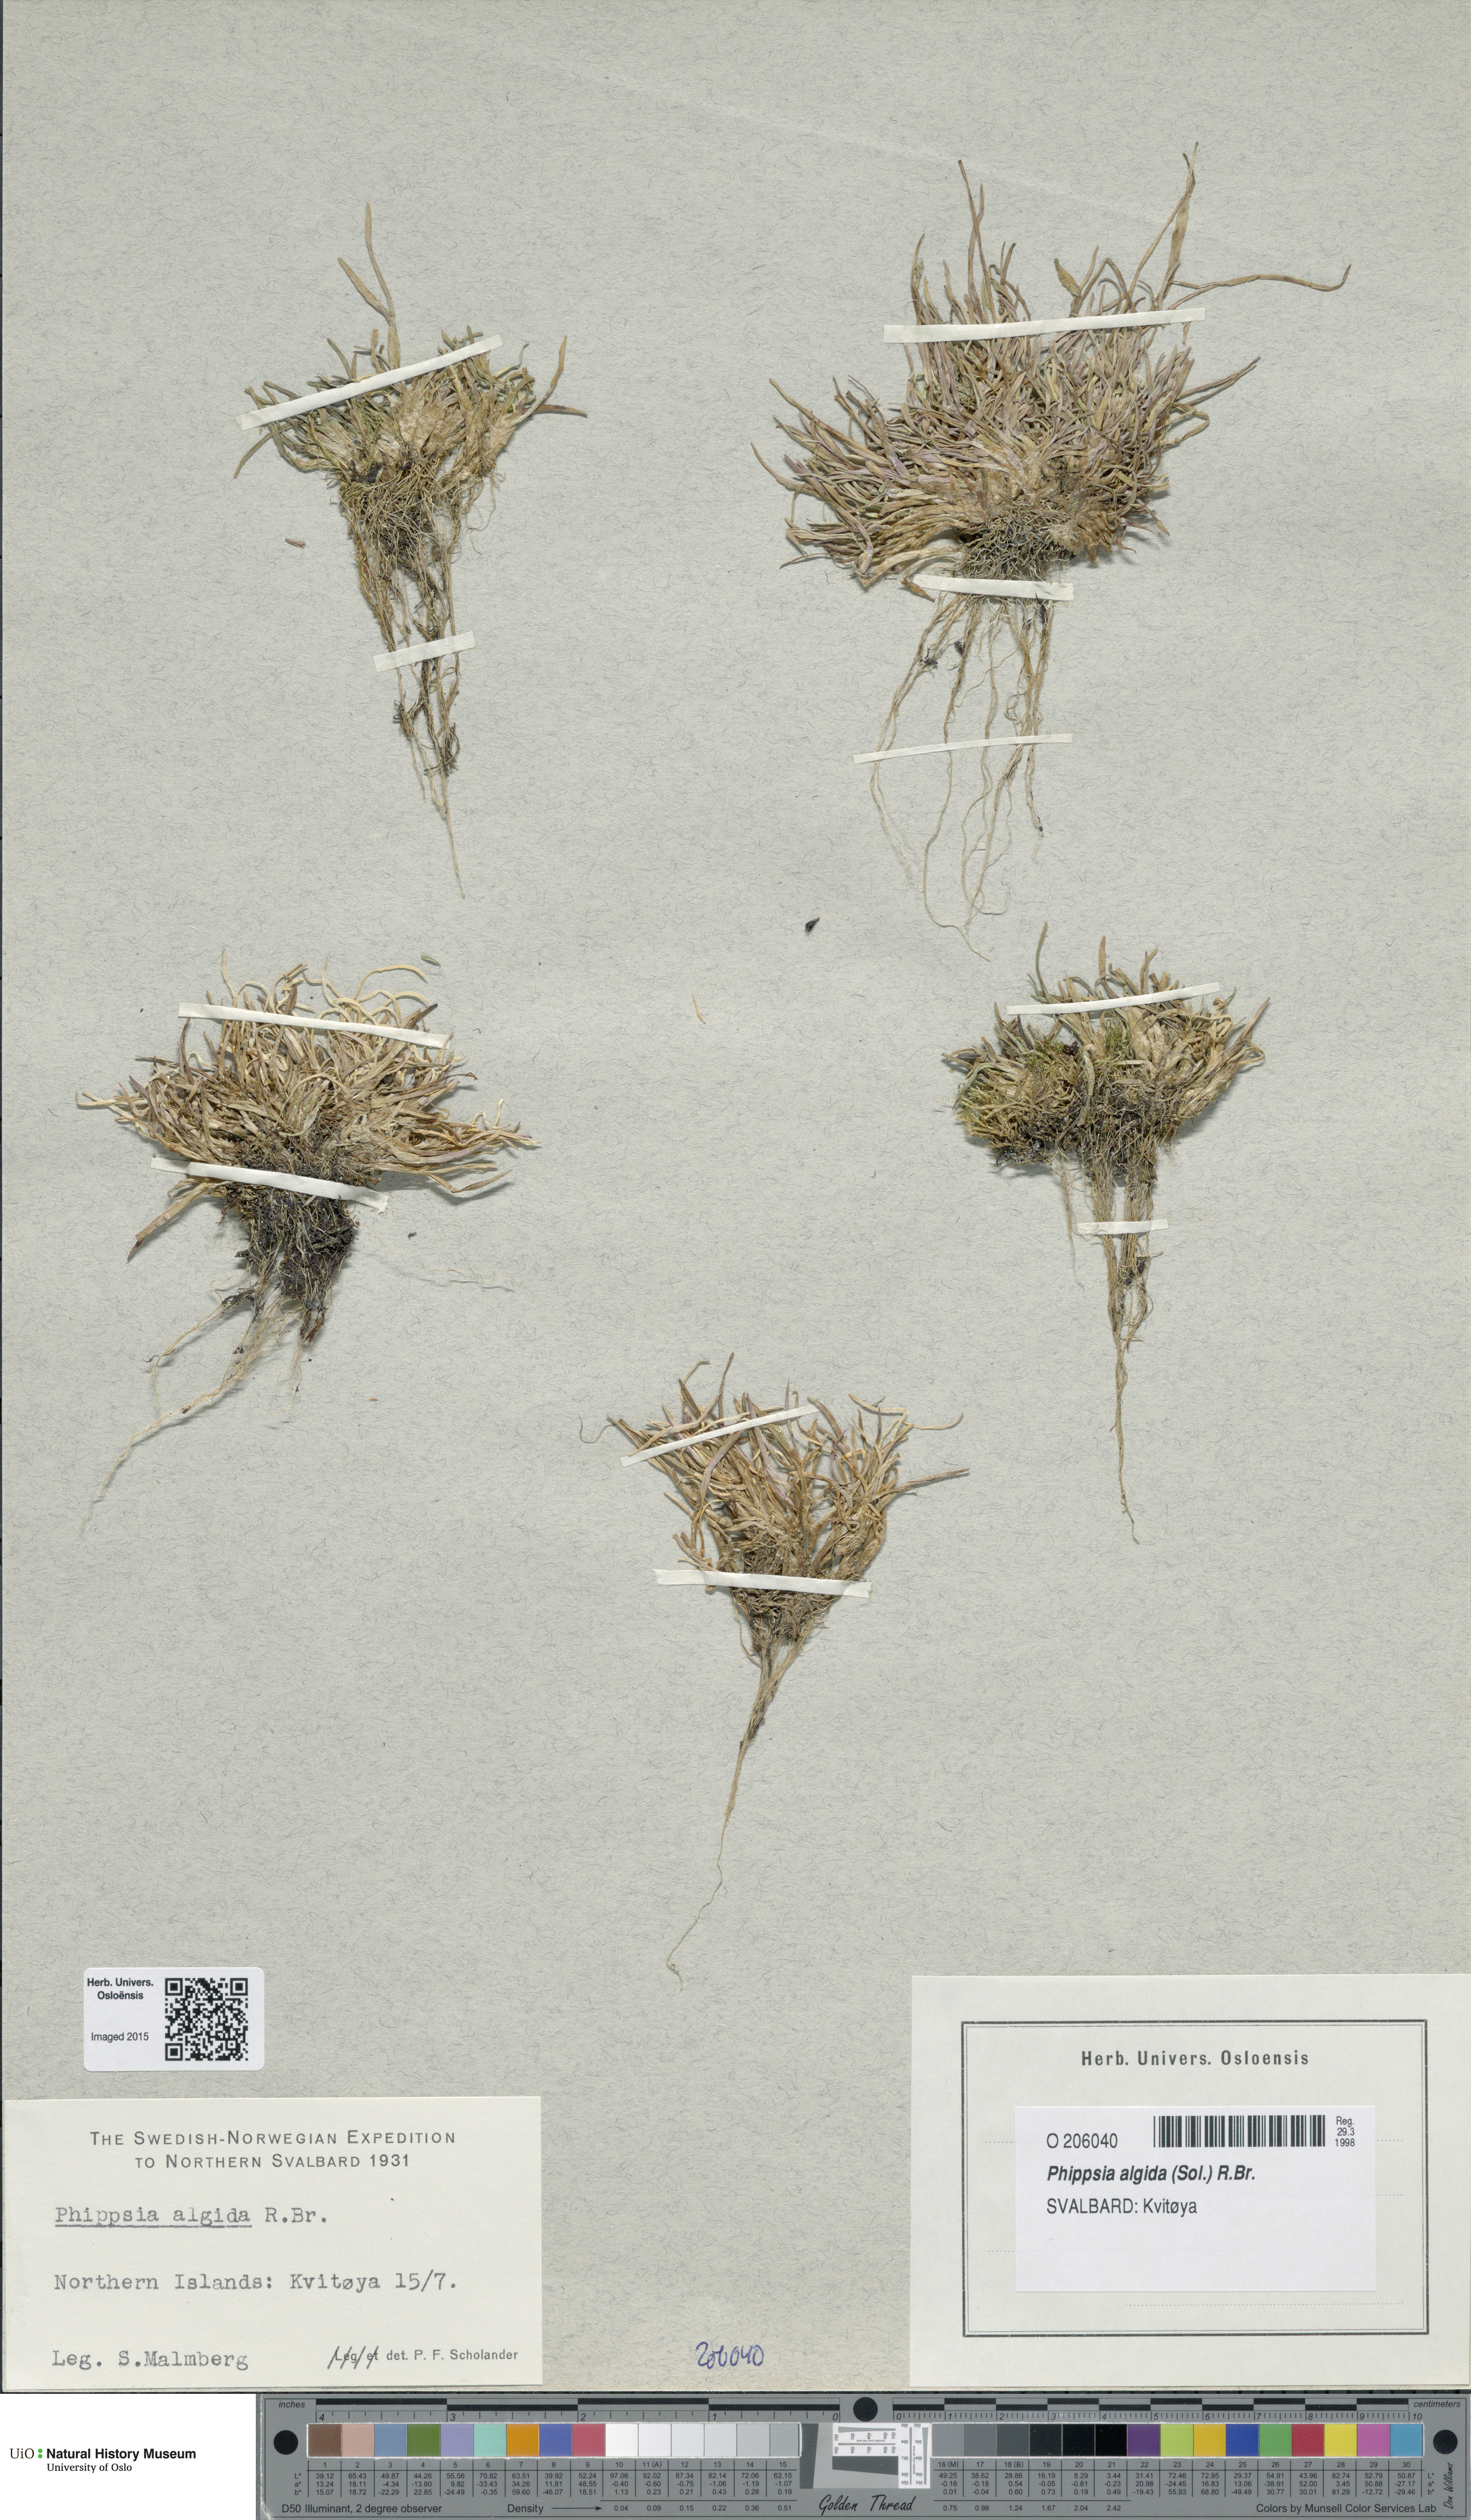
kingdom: Plantae
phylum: Tracheophyta
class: Liliopsida
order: Poales
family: Poaceae
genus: Phippsia
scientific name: Phippsia algida
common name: Ice grass
